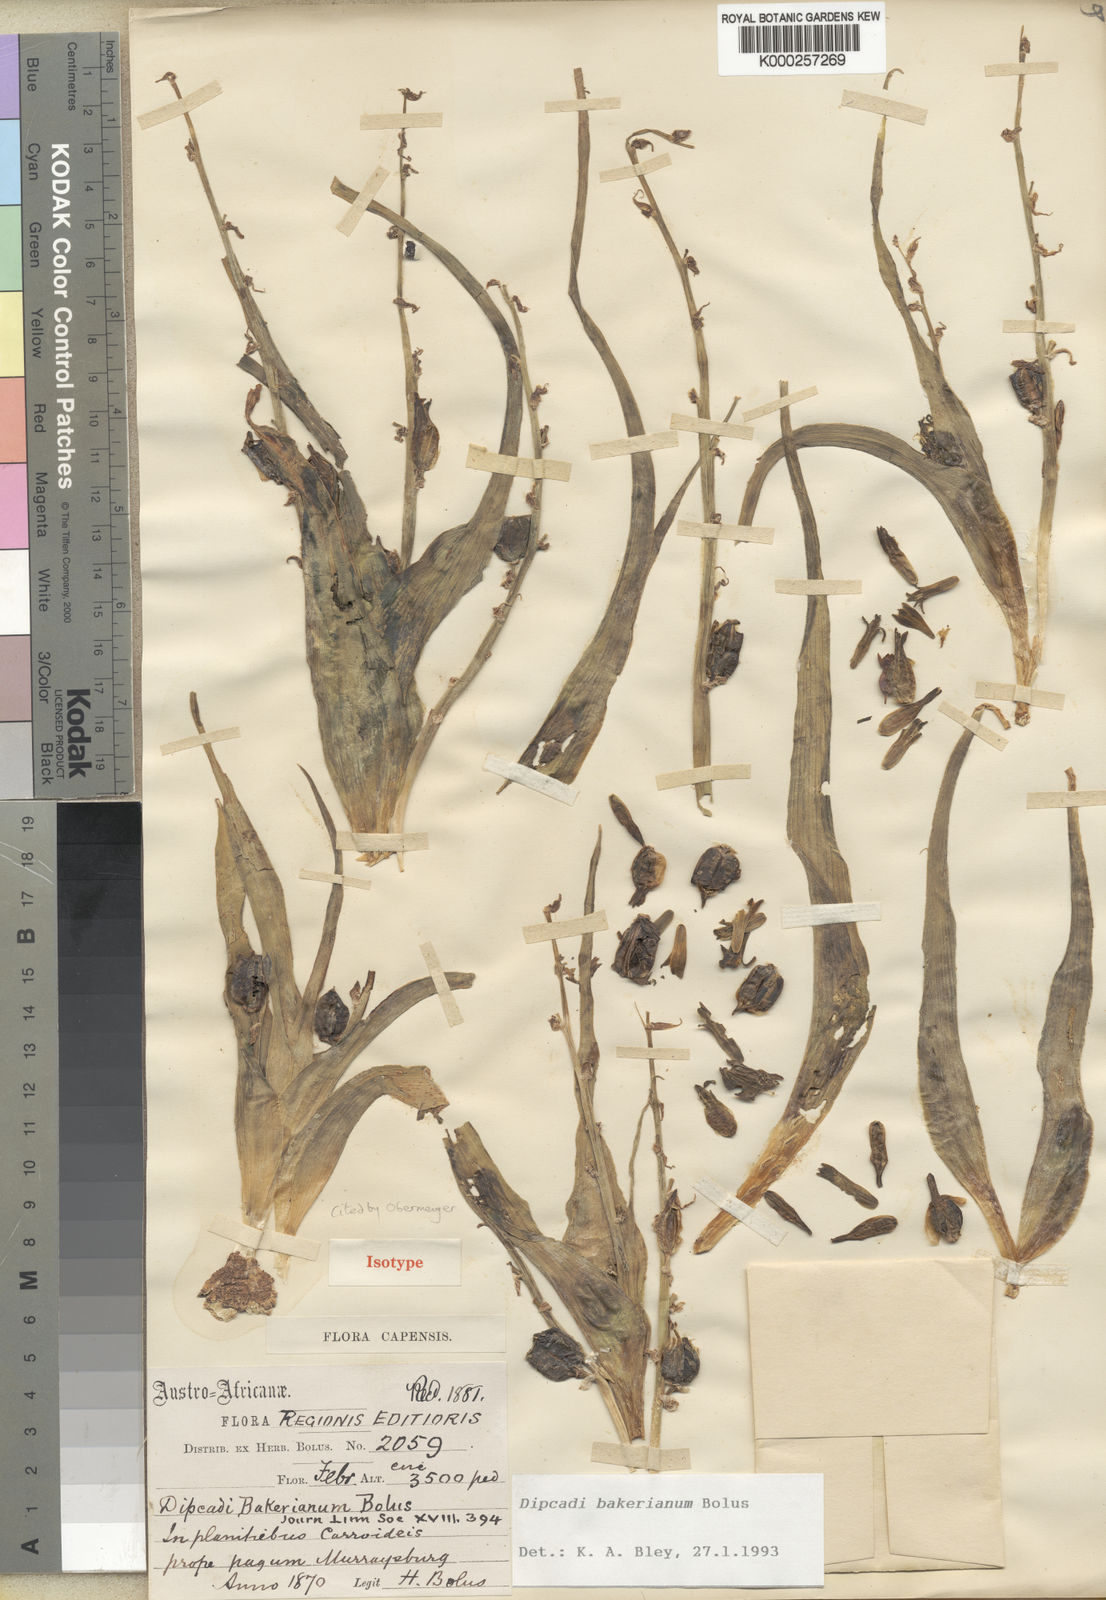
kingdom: Plantae
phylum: Tracheophyta
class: Liliopsida
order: Asparagales
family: Asparagaceae
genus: Dipcadi
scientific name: Dipcadi bakerianum
